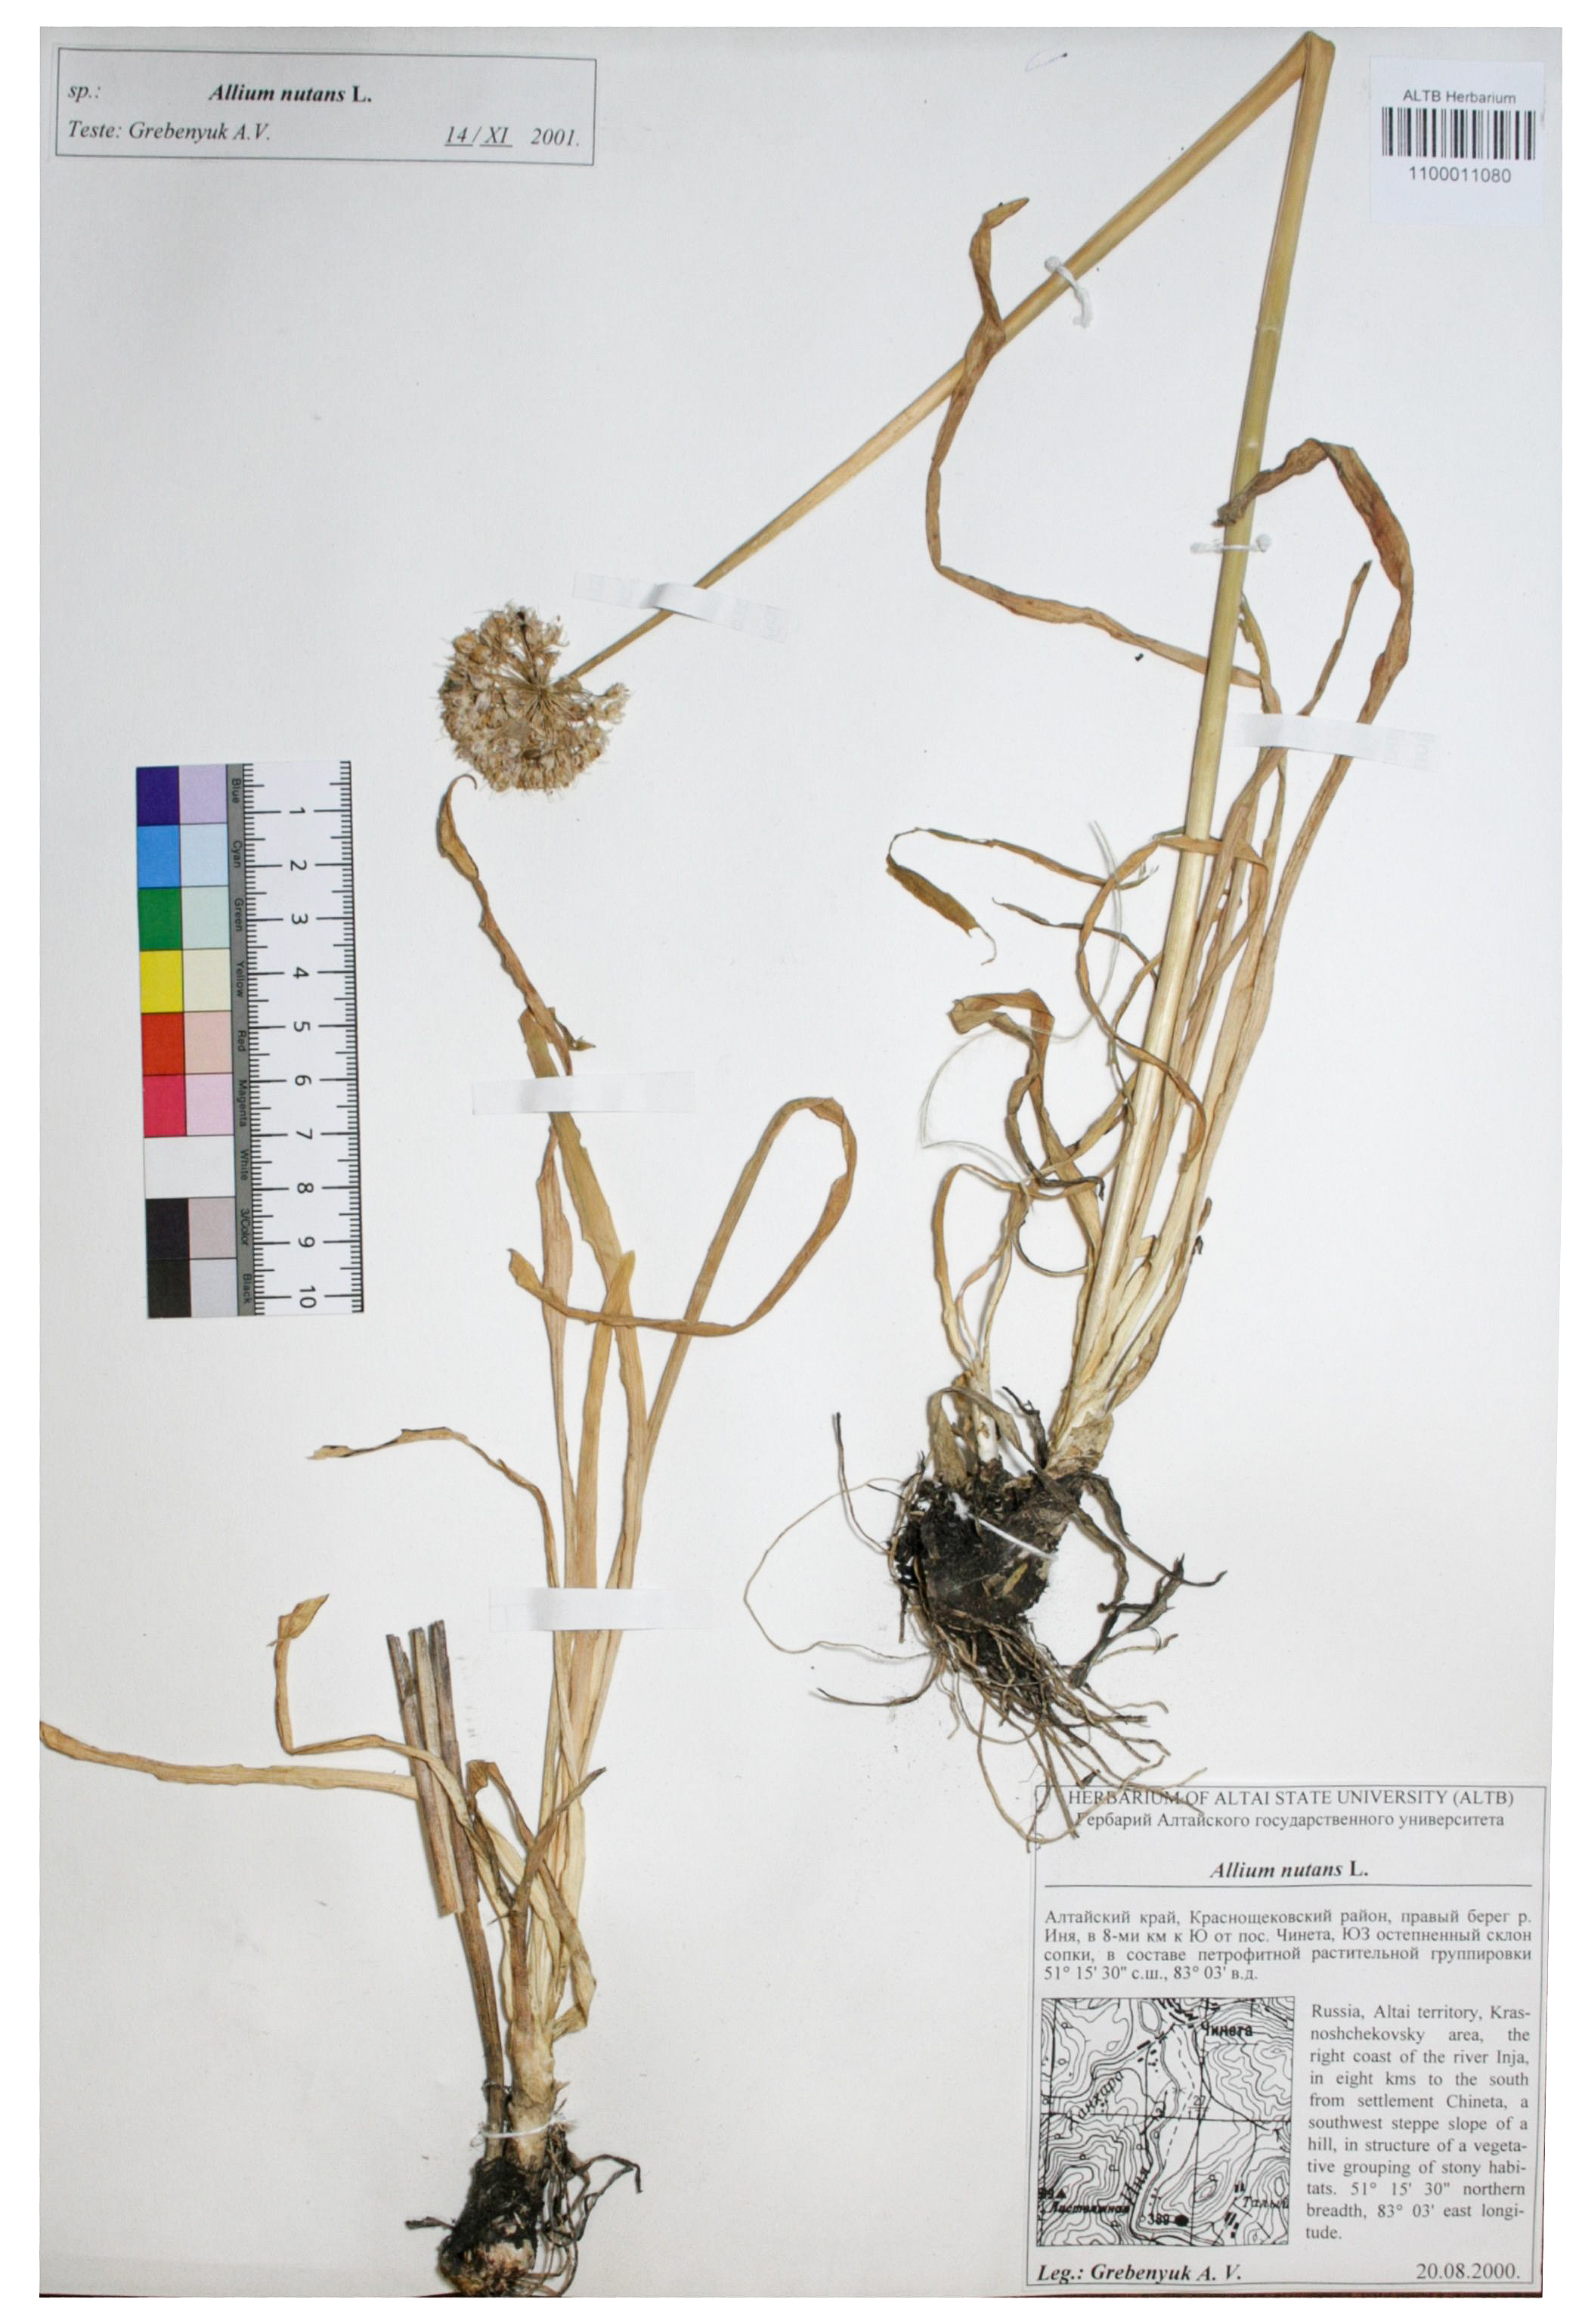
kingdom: Plantae
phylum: Tracheophyta
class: Liliopsida
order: Asparagales
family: Amaryllidaceae
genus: Allium
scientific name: Allium nutans
